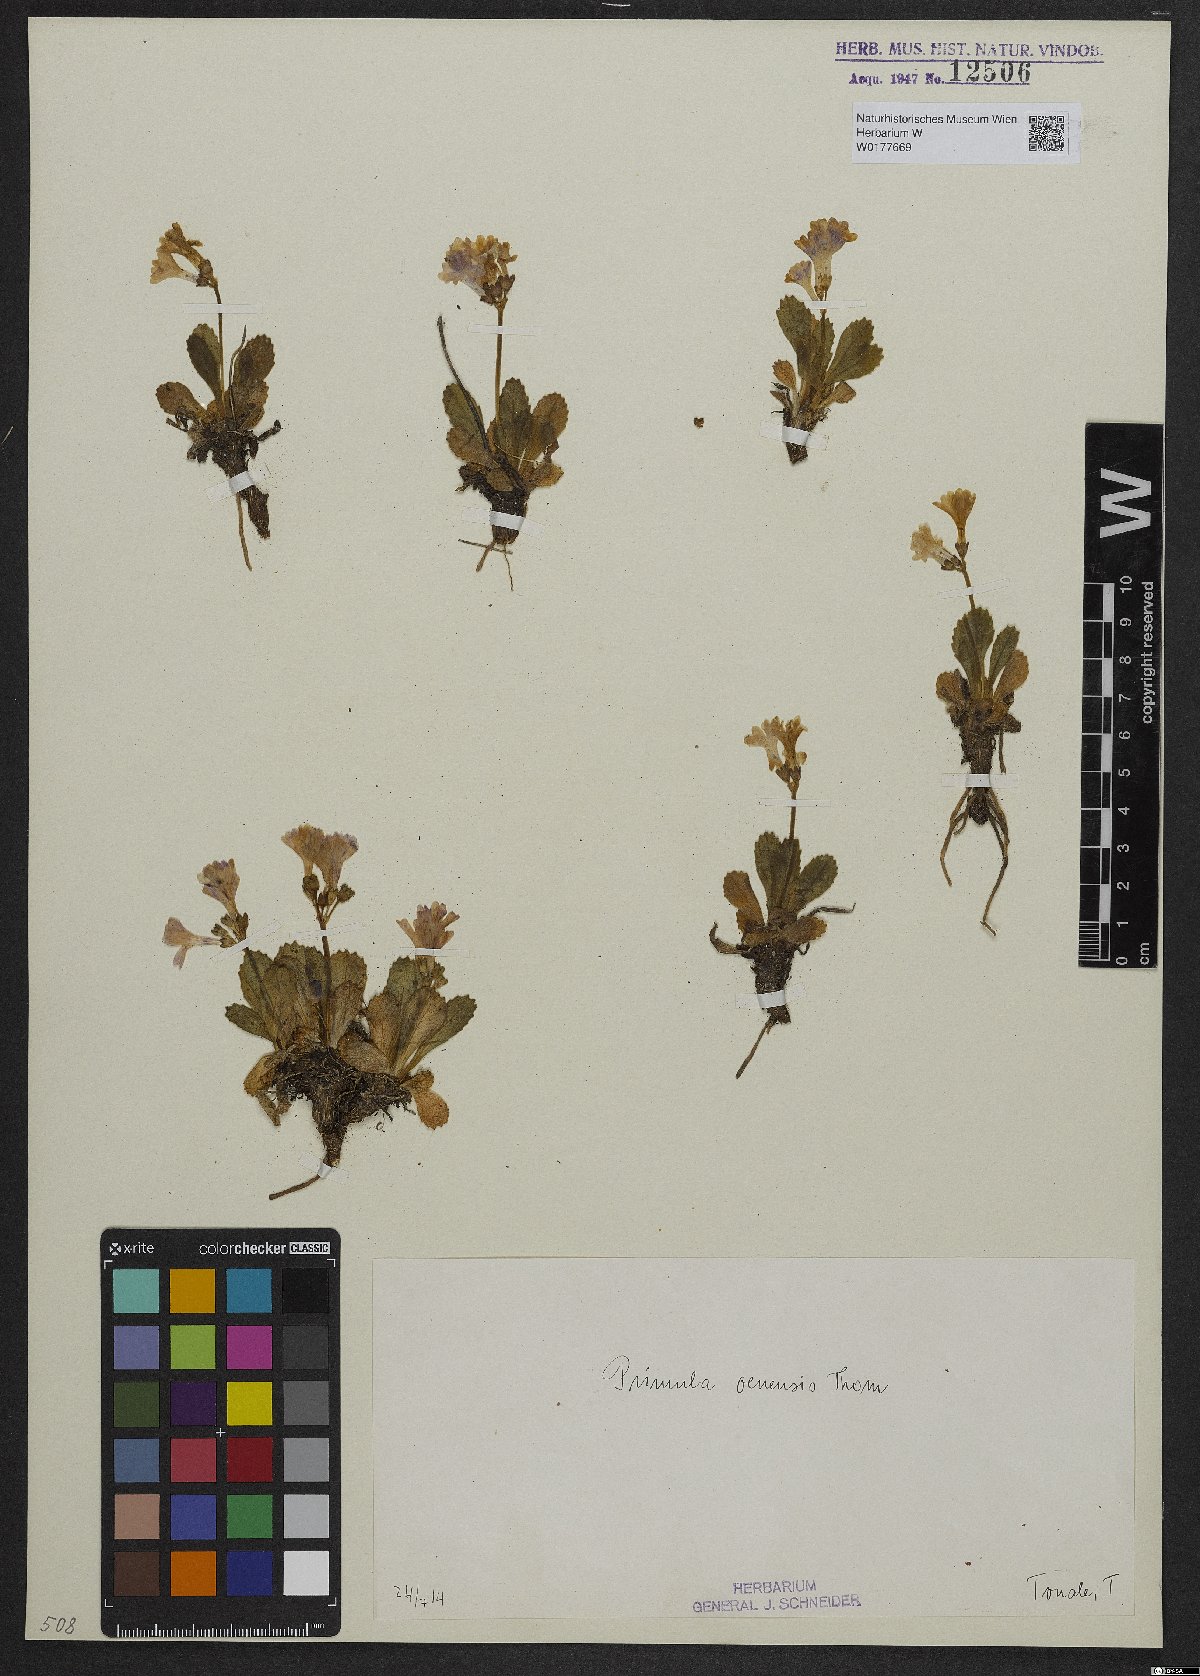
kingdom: Plantae
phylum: Tracheophyta
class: Magnoliopsida
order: Ericales
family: Primulaceae
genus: Primula
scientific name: Primula daonensis
